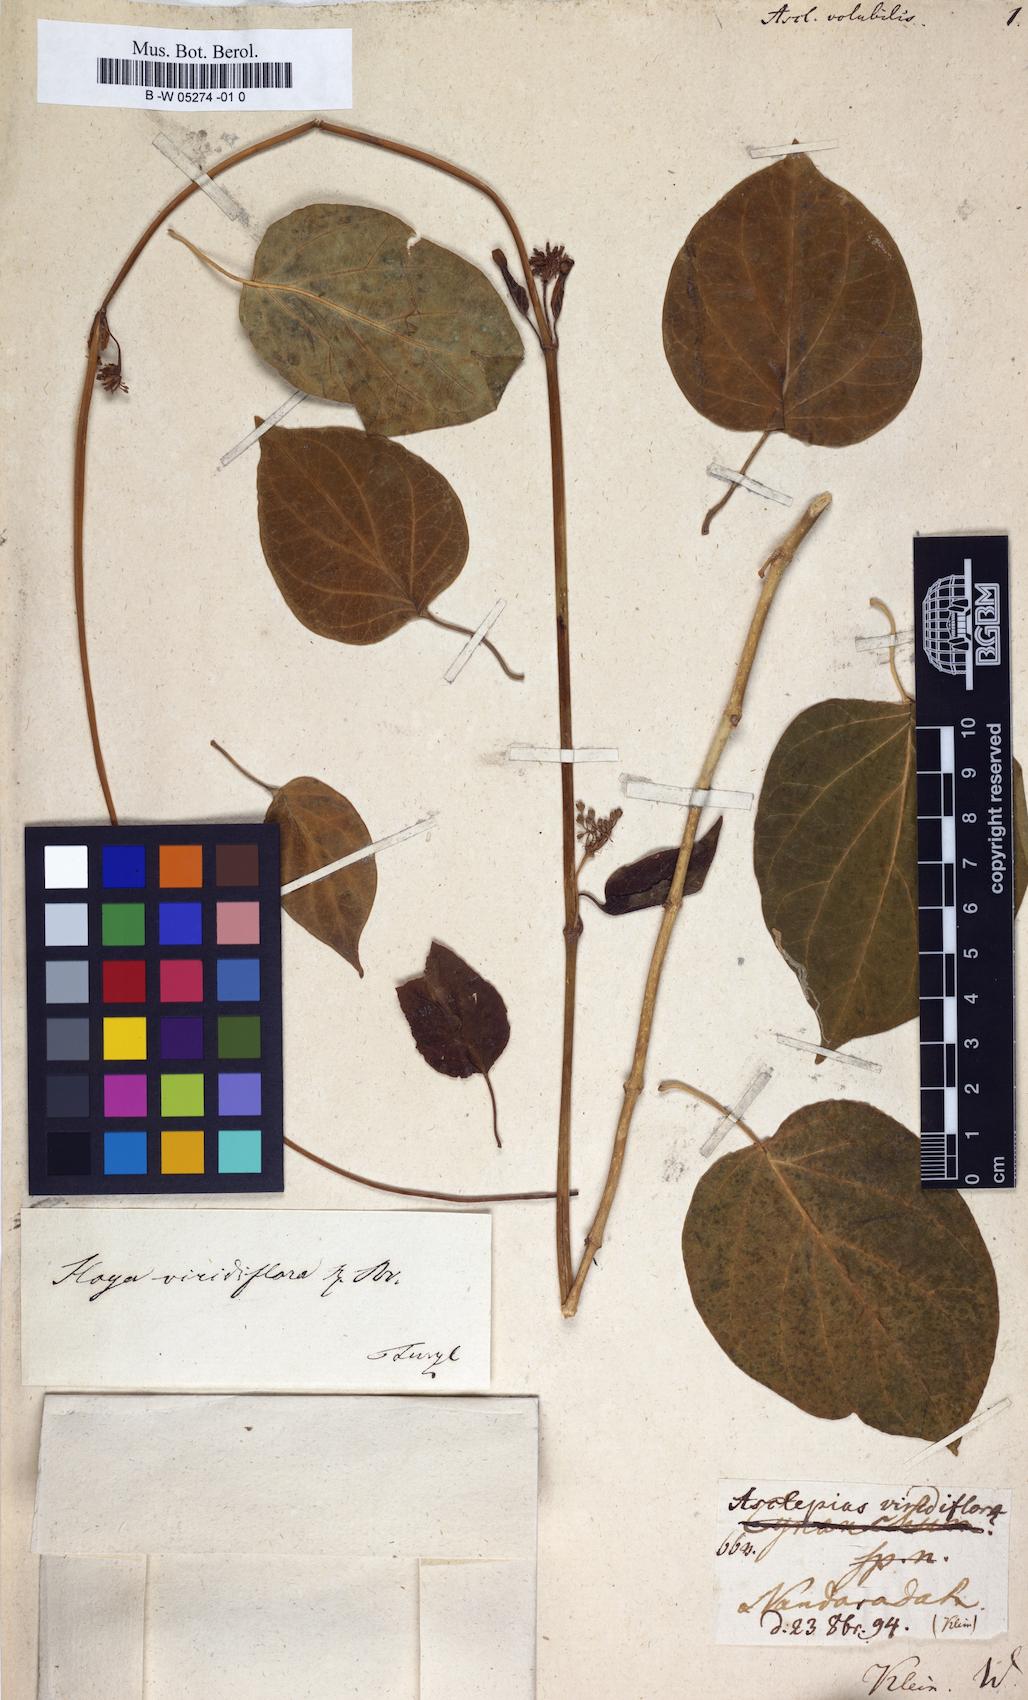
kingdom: Plantae
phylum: Tracheophyta
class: Magnoliopsida
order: Gentianales
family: Apocynaceae
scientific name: Apocynaceae
